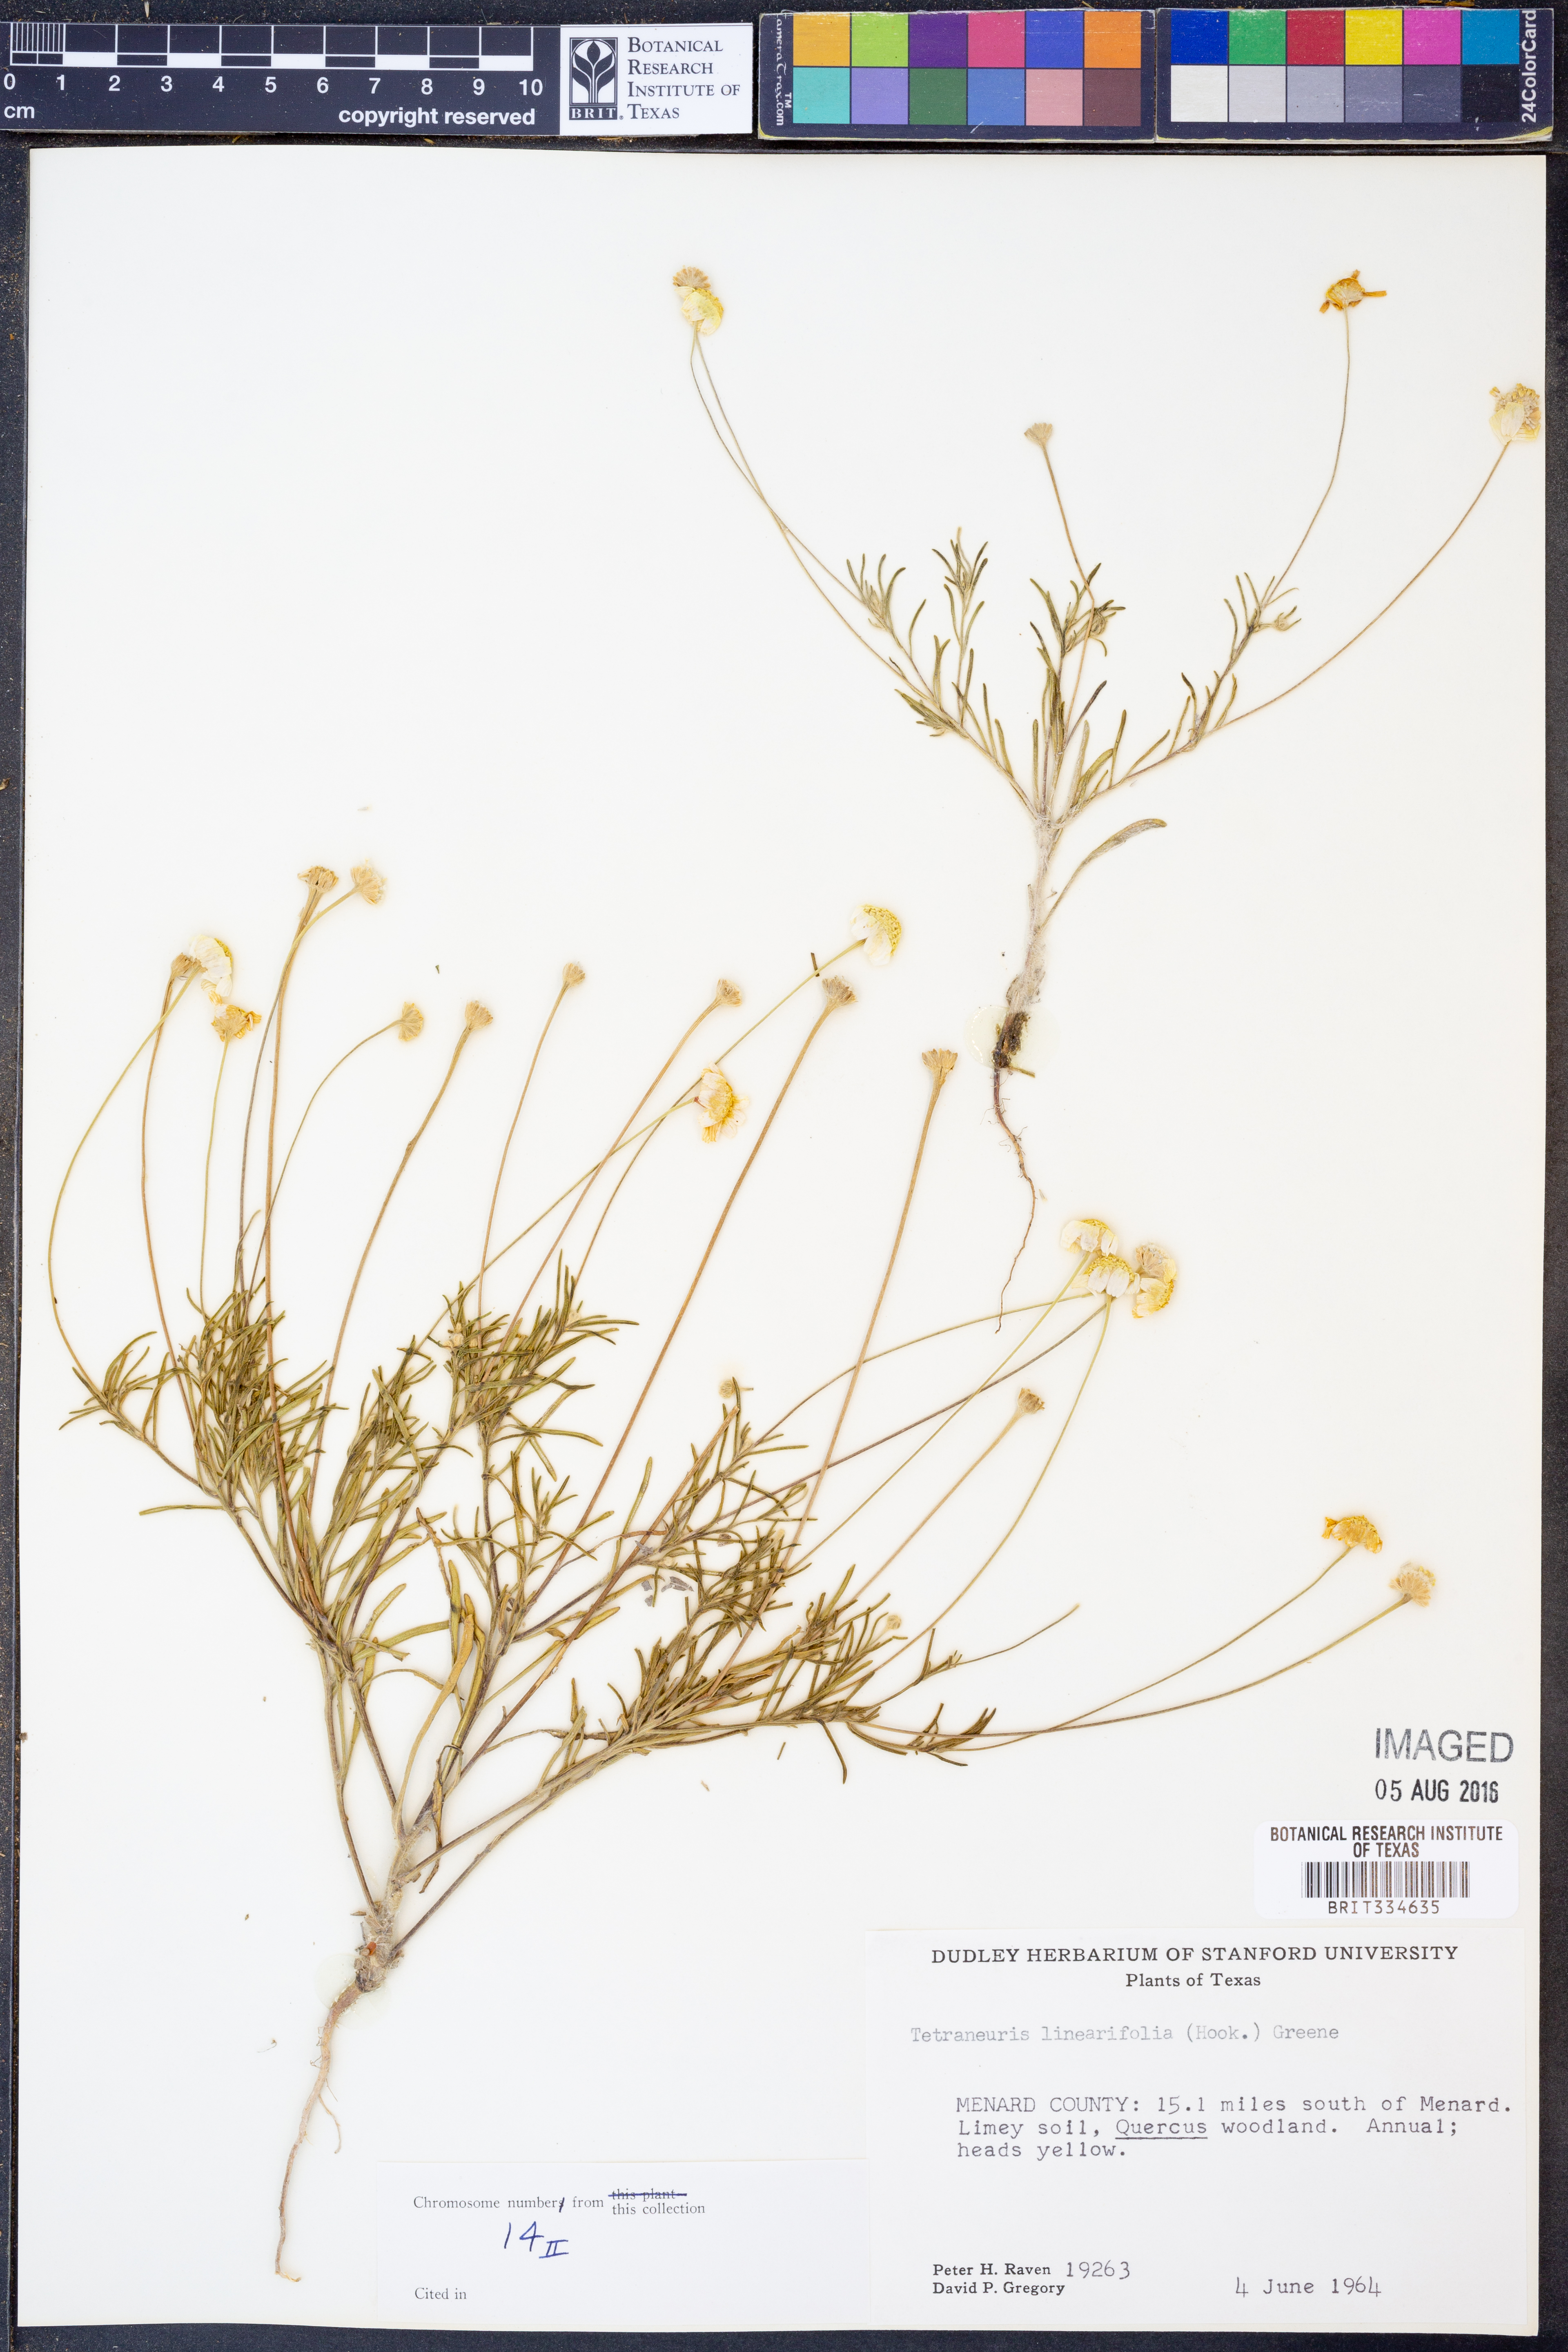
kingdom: Plantae
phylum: Tracheophyta
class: Magnoliopsida
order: Asterales
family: Asteraceae
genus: Tetraneuris
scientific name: Tetraneuris linearifolia
